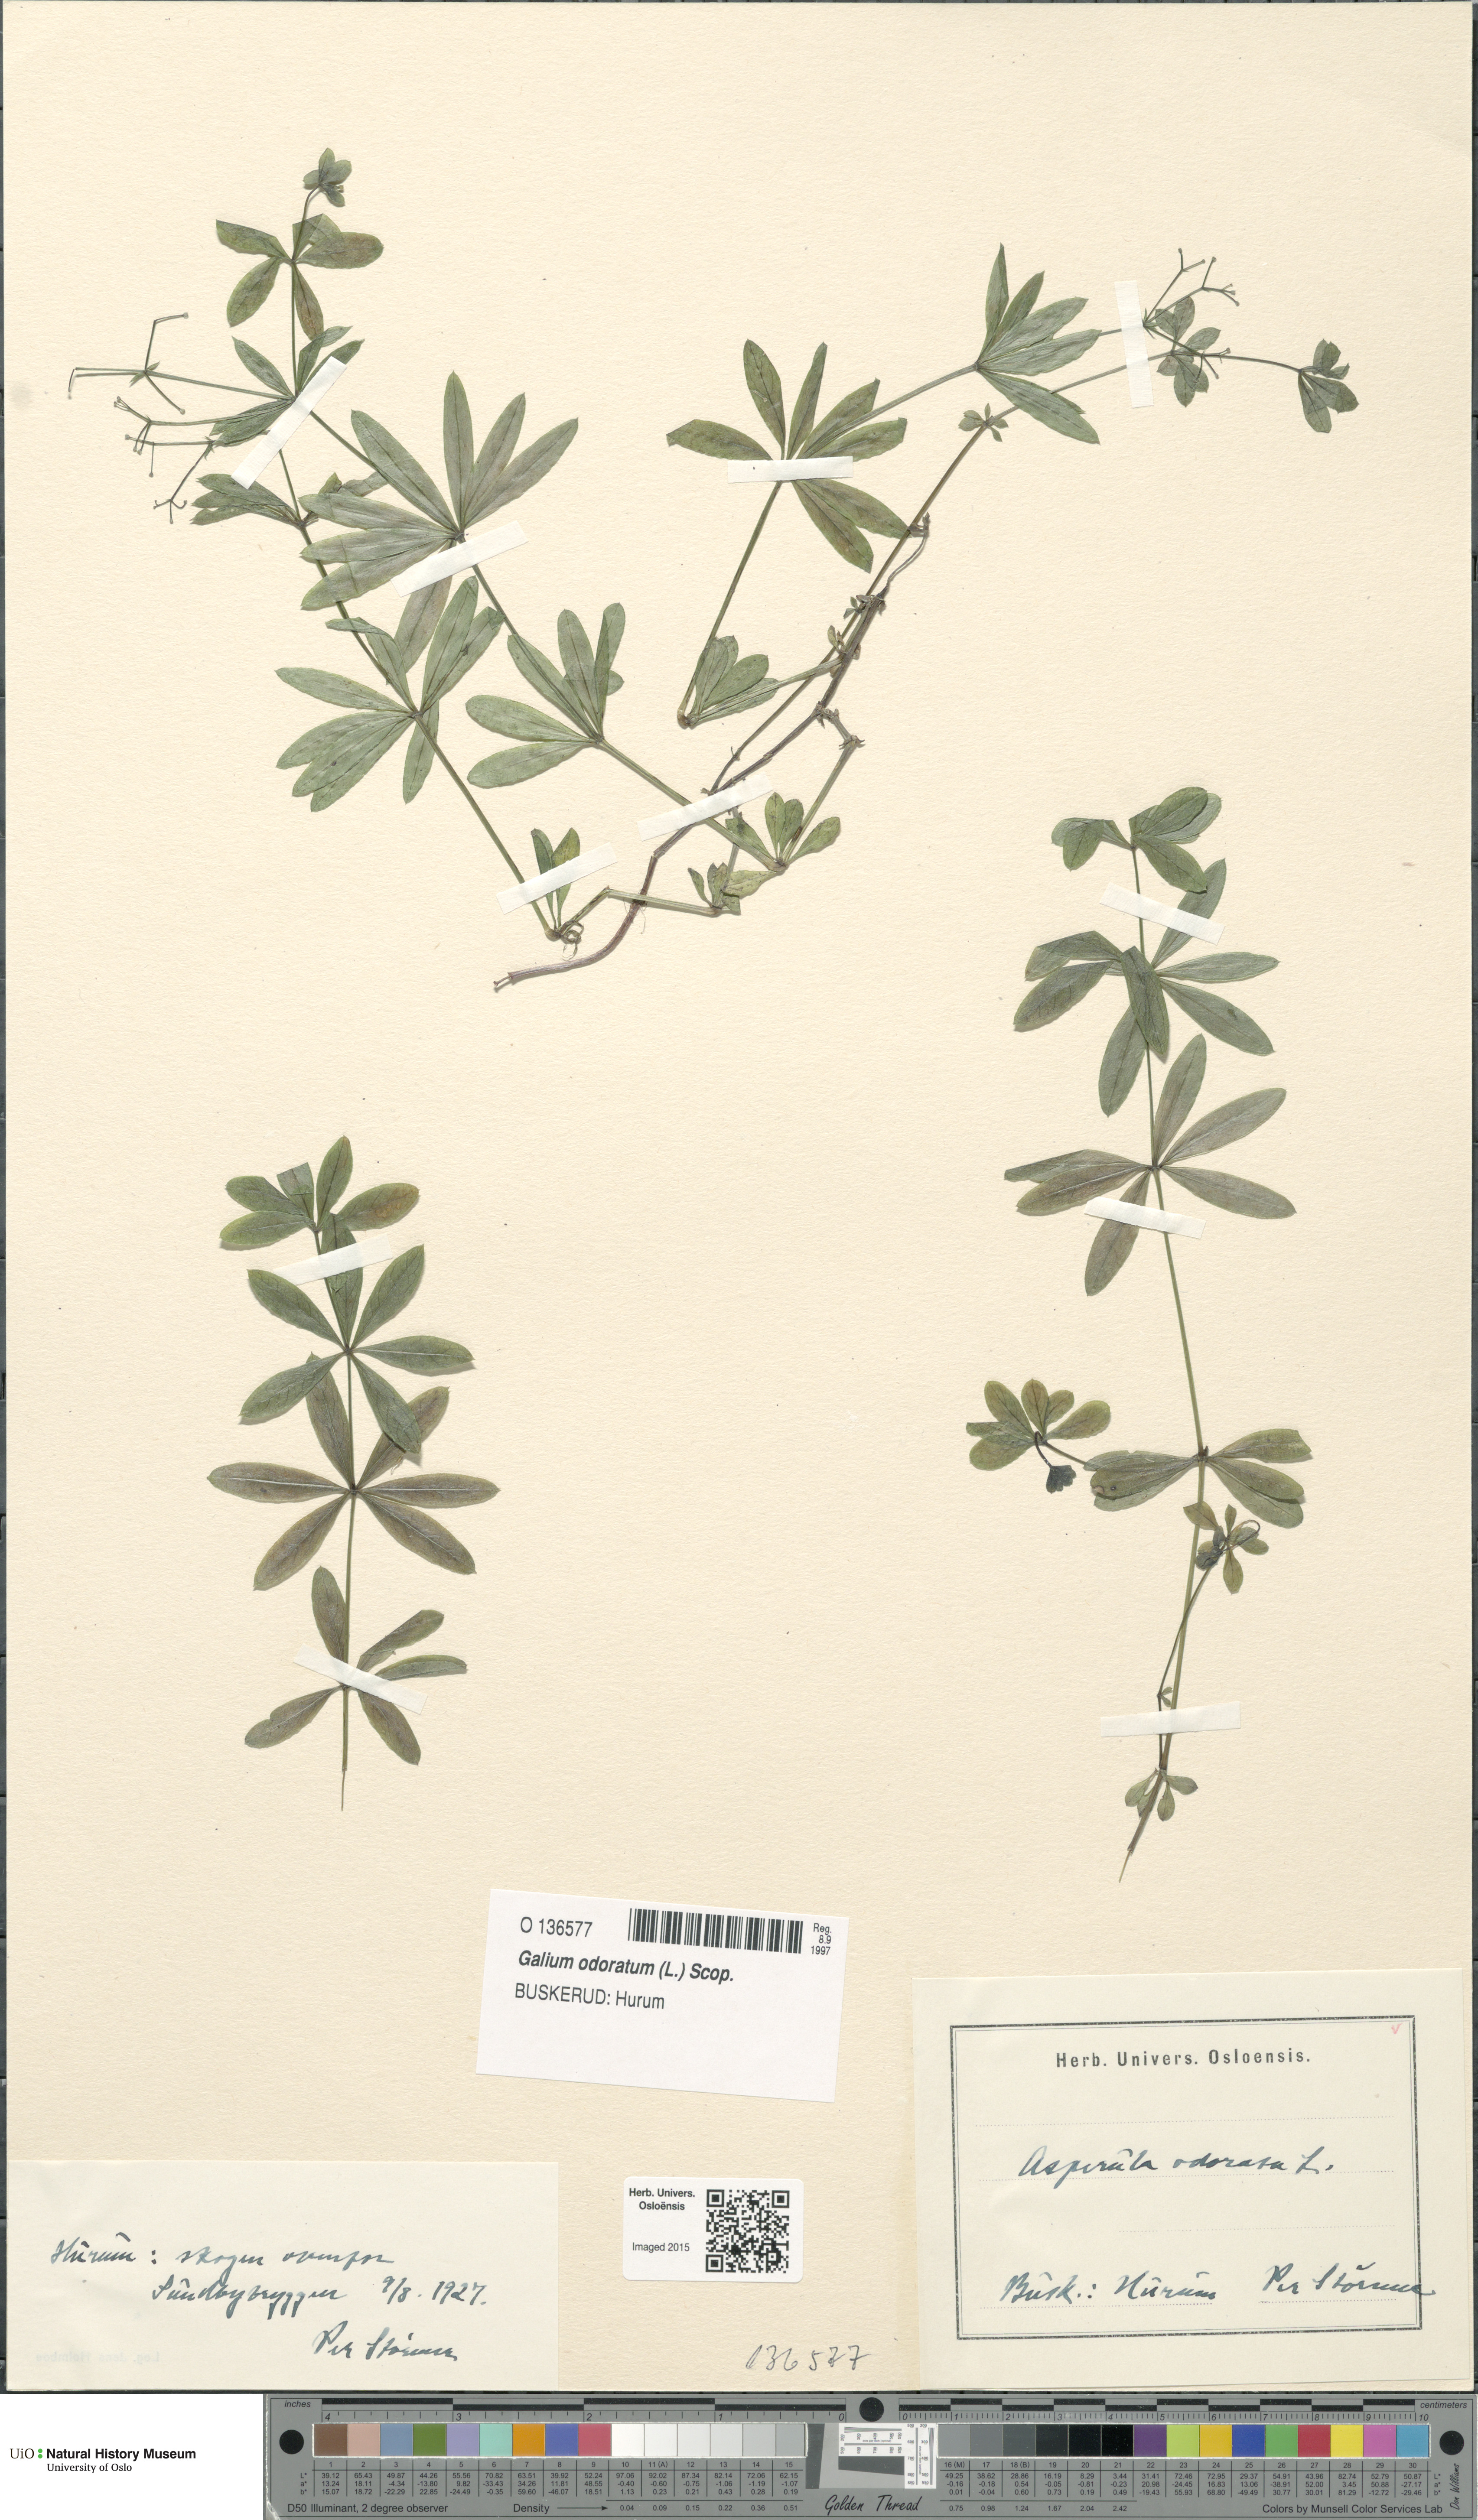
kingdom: Plantae
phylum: Tracheophyta
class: Magnoliopsida
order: Gentianales
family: Rubiaceae
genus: Galium
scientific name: Galium odoratum
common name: Sweet woodruff
